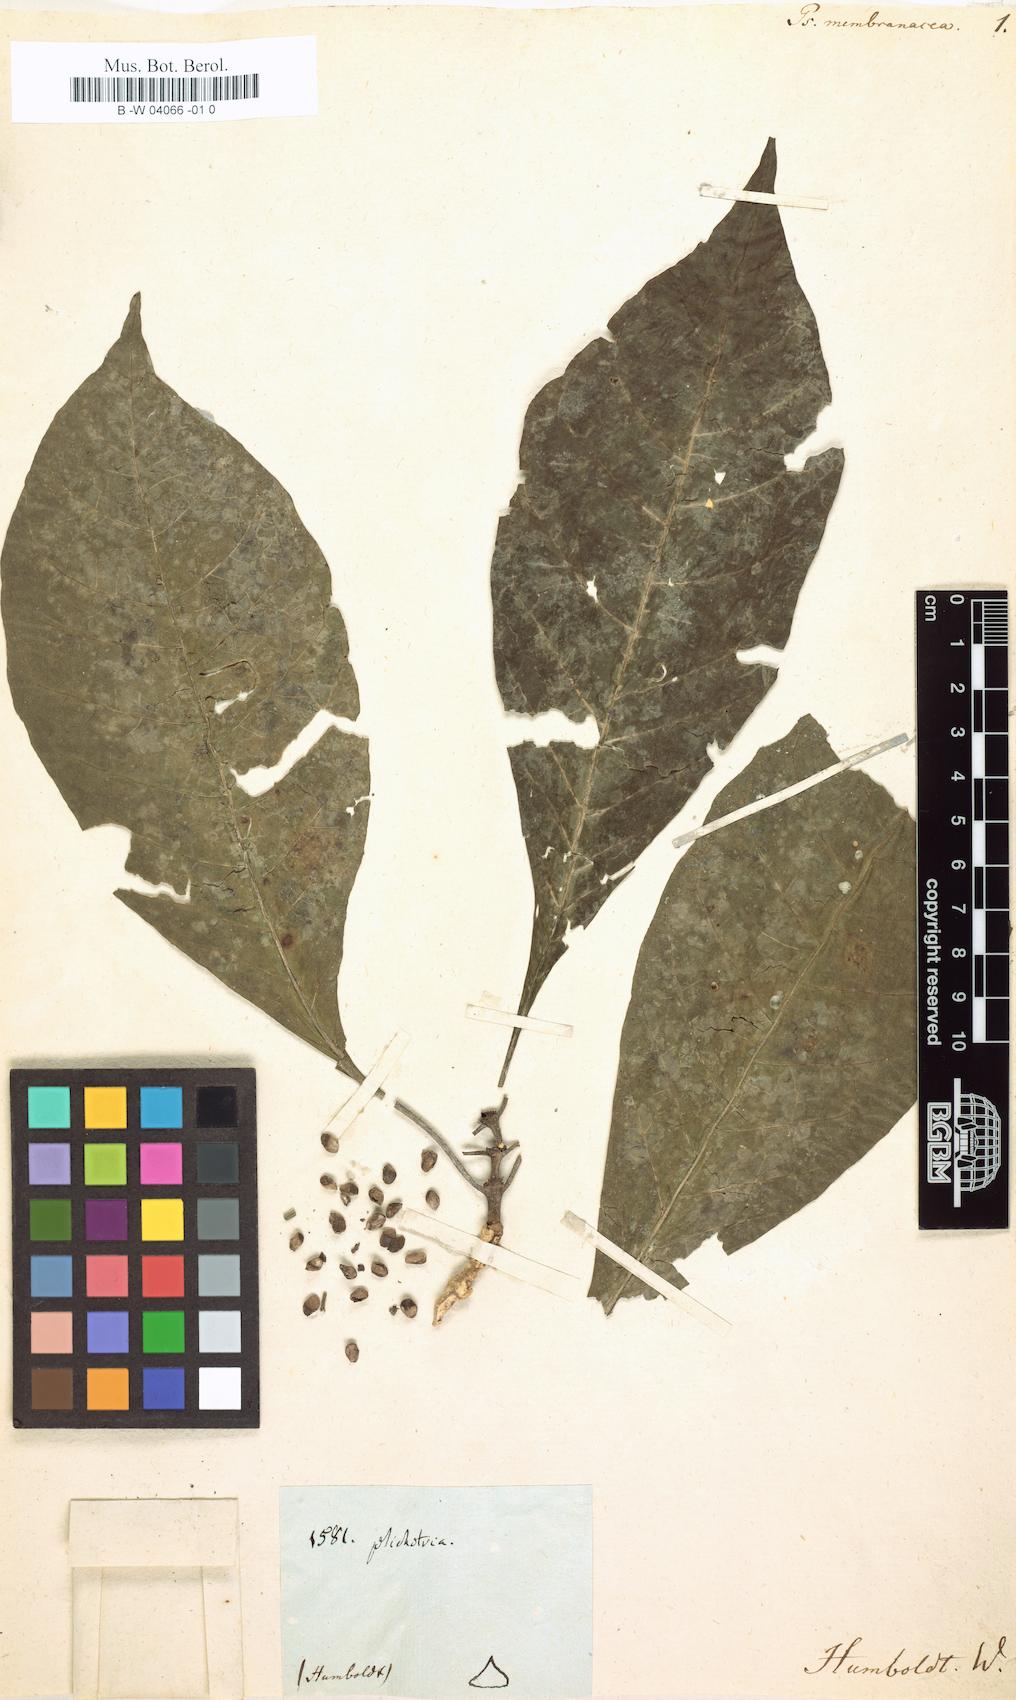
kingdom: Plantae
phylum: Tracheophyta
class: Magnoliopsida
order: Gentianales
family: Rubiaceae
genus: Psychotria
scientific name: Psychotria membranacea
